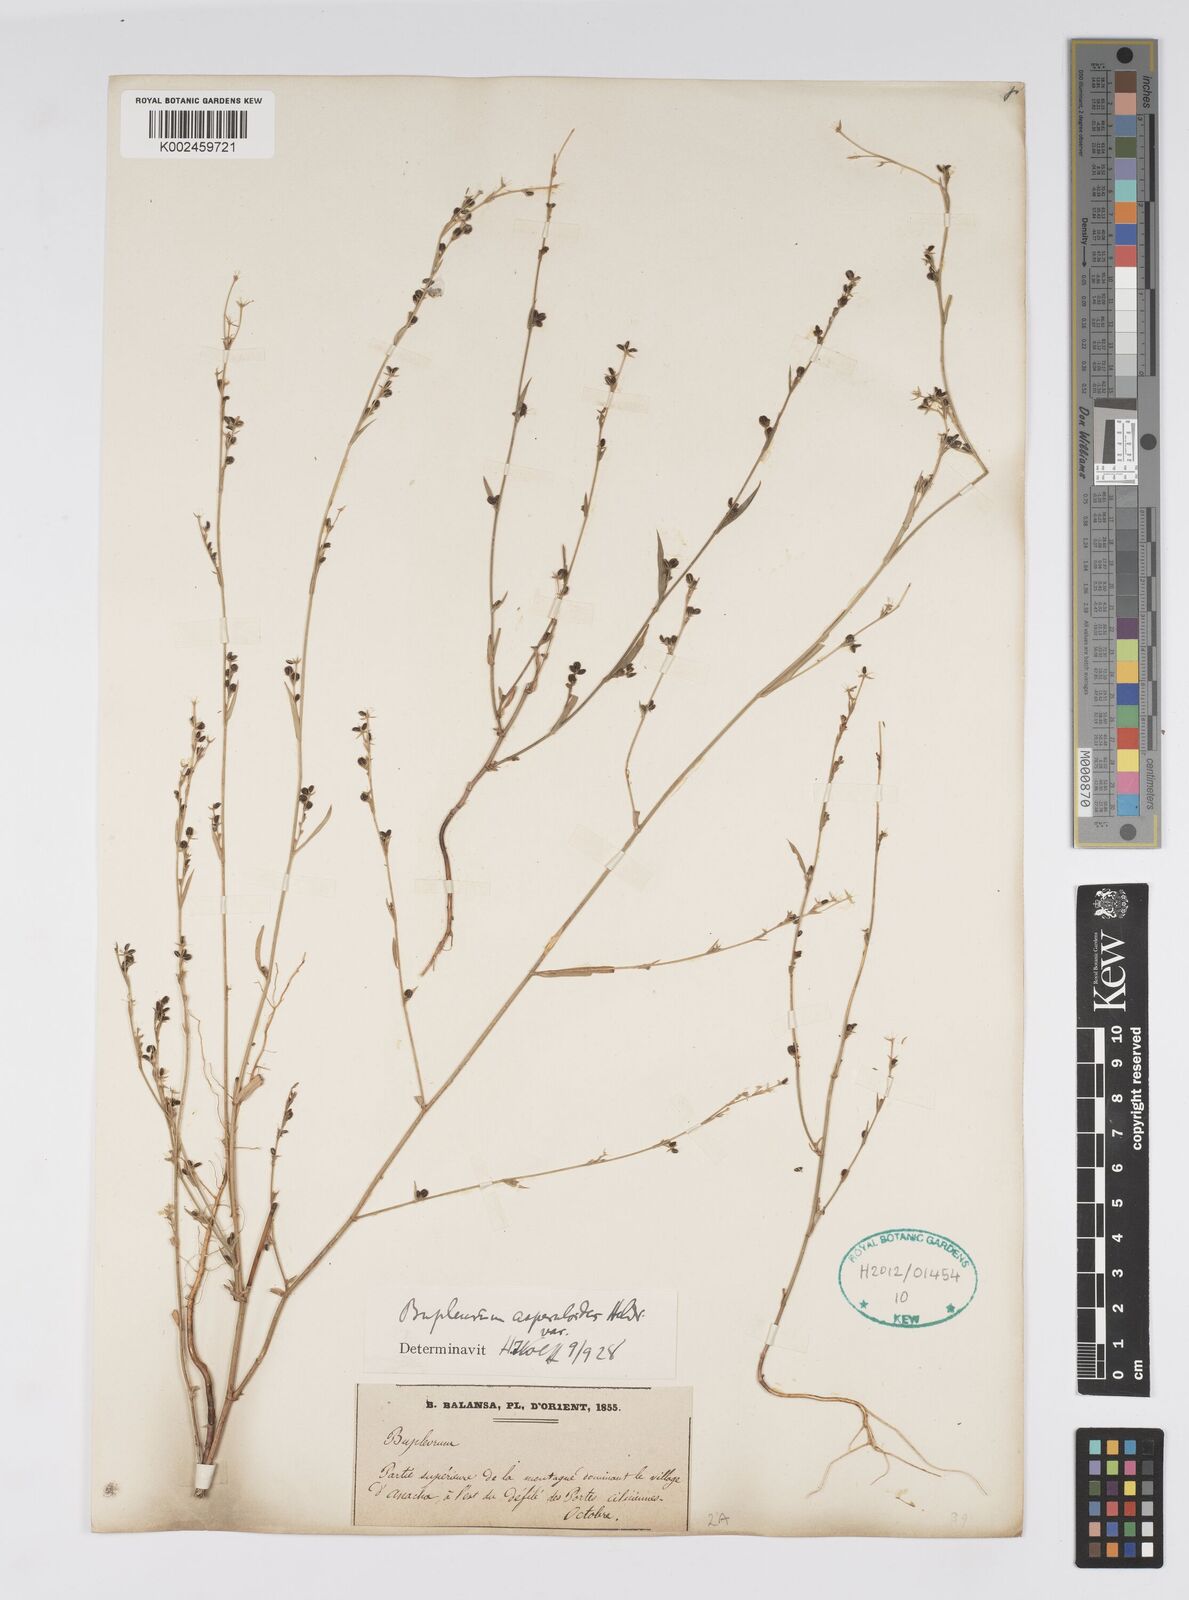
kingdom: Plantae
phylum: Tracheophyta
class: Magnoliopsida
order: Apiales
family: Apiaceae
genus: Bupleurum
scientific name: Bupleurum asperuloides
